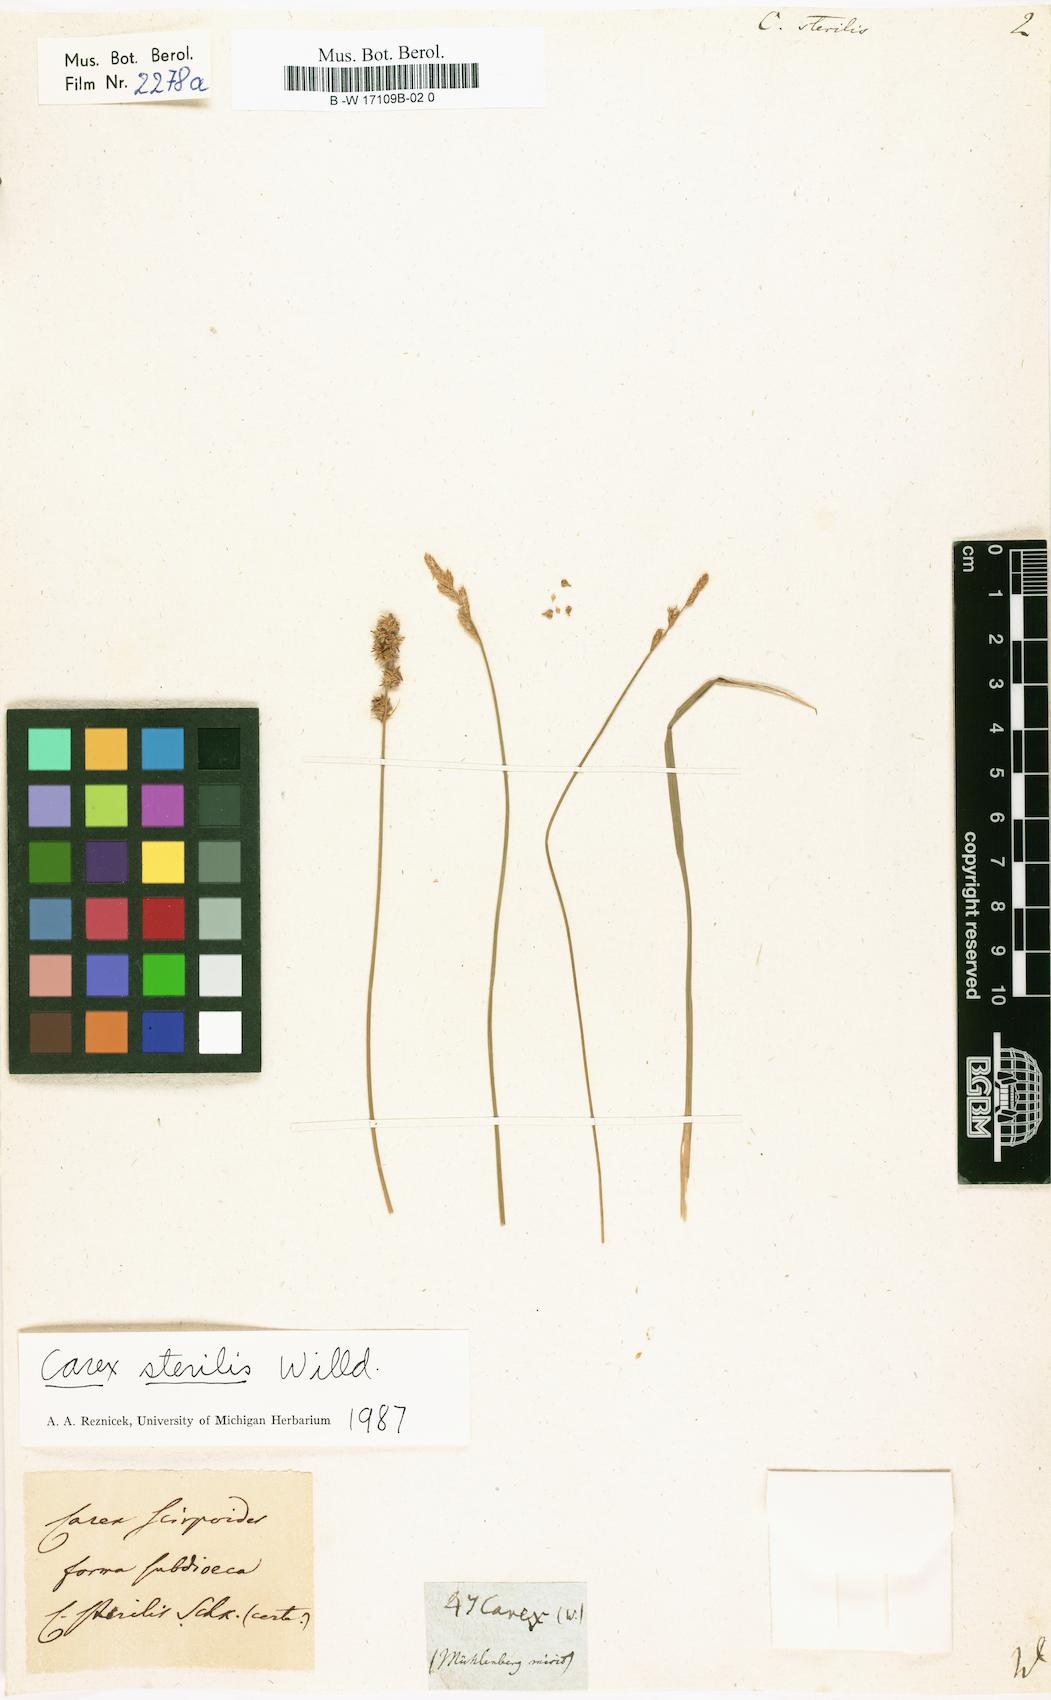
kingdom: Plantae
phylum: Tracheophyta
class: Liliopsida
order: Poales
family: Cyperaceae
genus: Carex
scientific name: Carex sterilis
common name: Dioecious sedge
